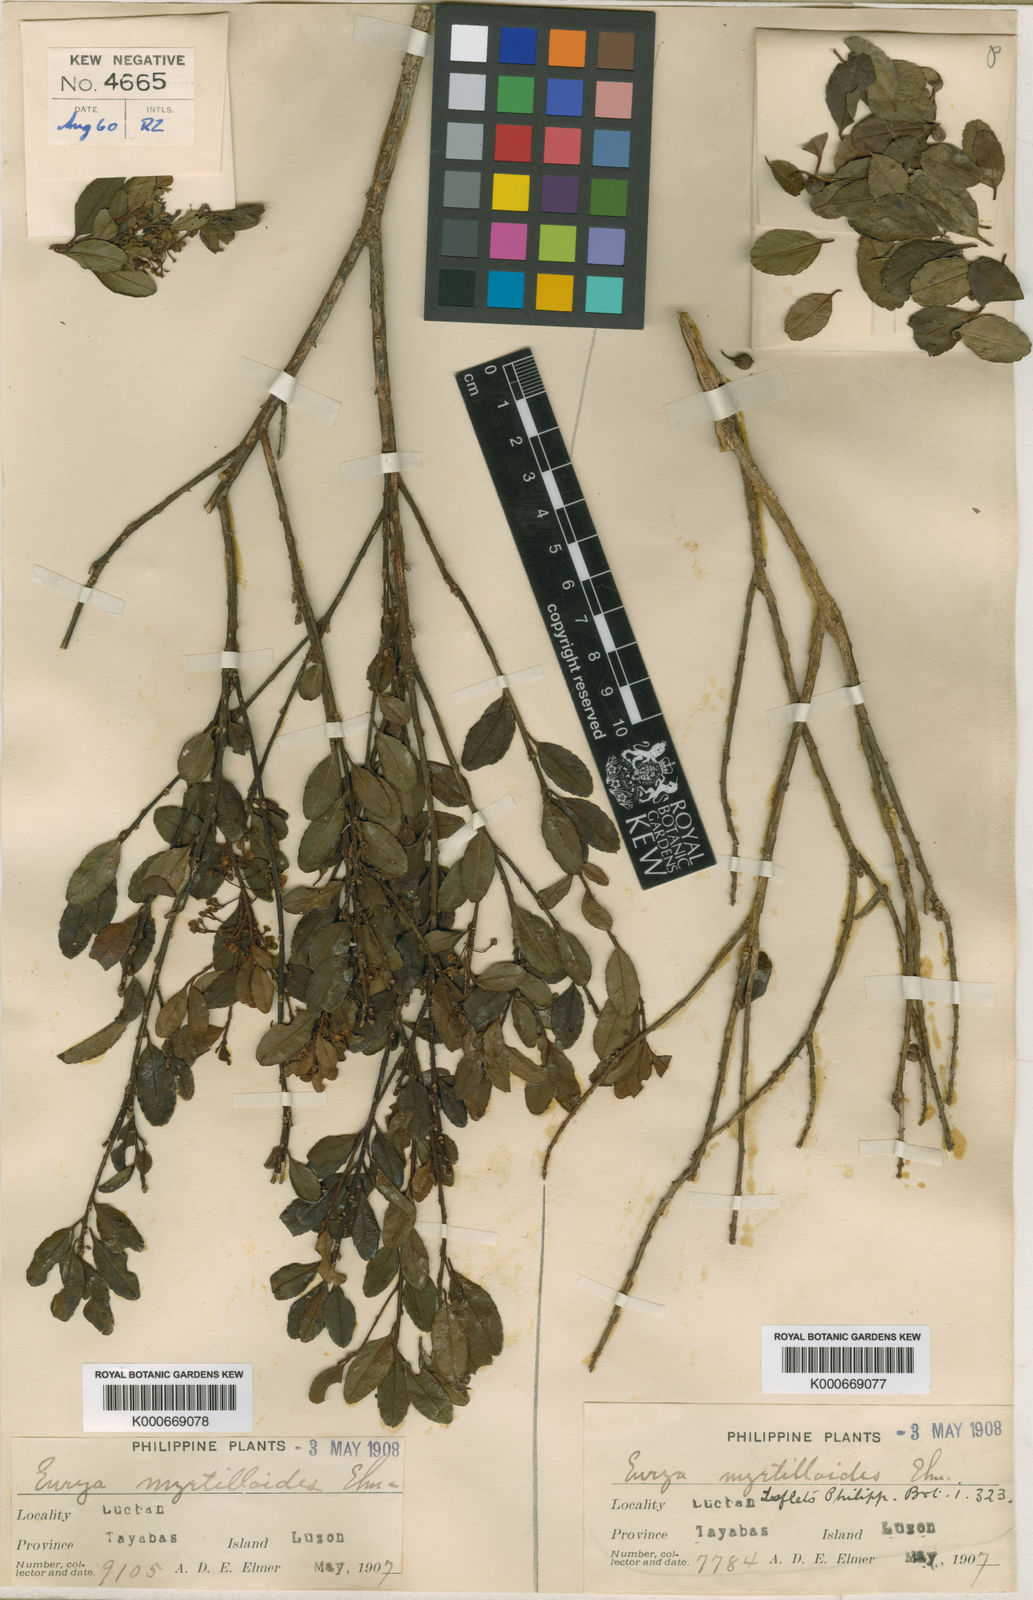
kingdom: Plantae
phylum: Tracheophyta
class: Magnoliopsida
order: Aquifoliales
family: Aquifoliaceae
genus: Ilex
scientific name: Ilex crenata
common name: Japanese holly
